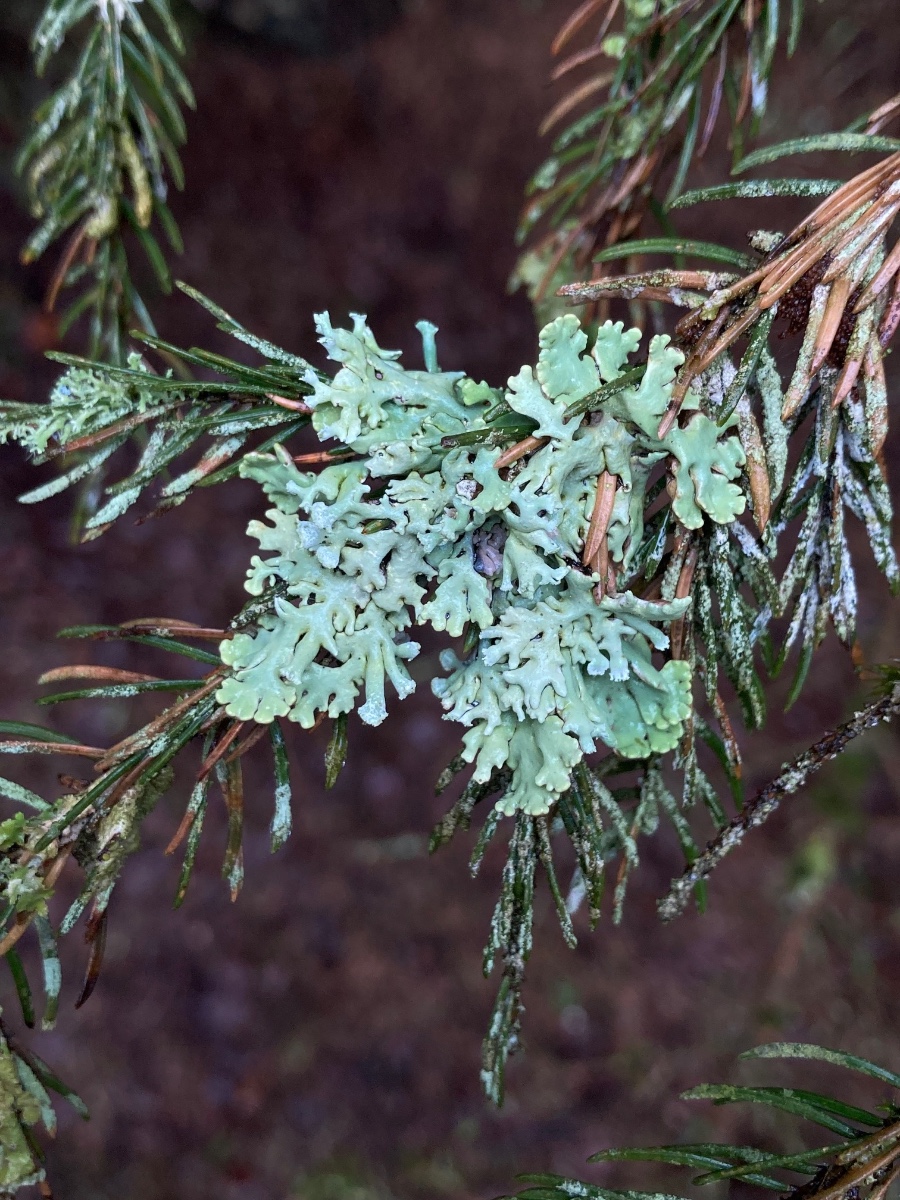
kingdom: Fungi
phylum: Ascomycota
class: Lecanoromycetes
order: Lecanorales
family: Parmeliaceae
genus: Hypogymnia
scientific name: Hypogymnia physodes
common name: almindelig kvistlav
